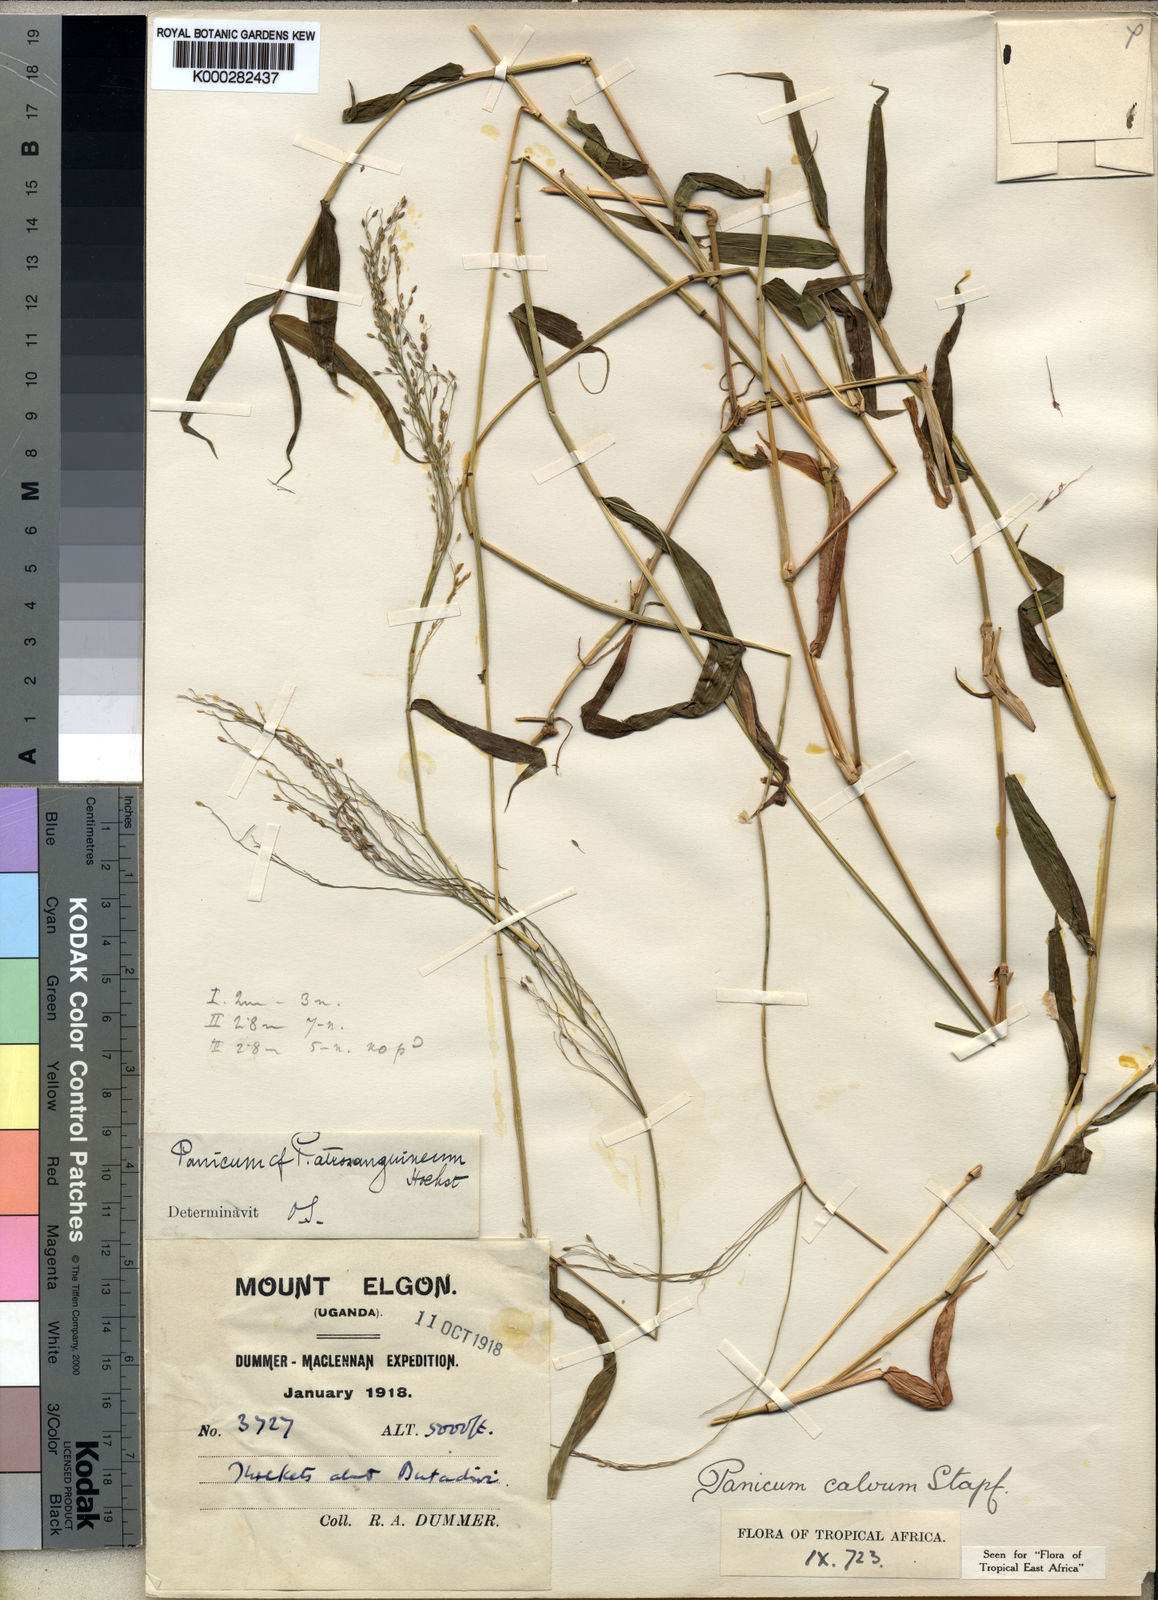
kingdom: Plantae
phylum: Tracheophyta
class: Liliopsida
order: Poales
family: Poaceae
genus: Panicum
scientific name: Panicum calvum
